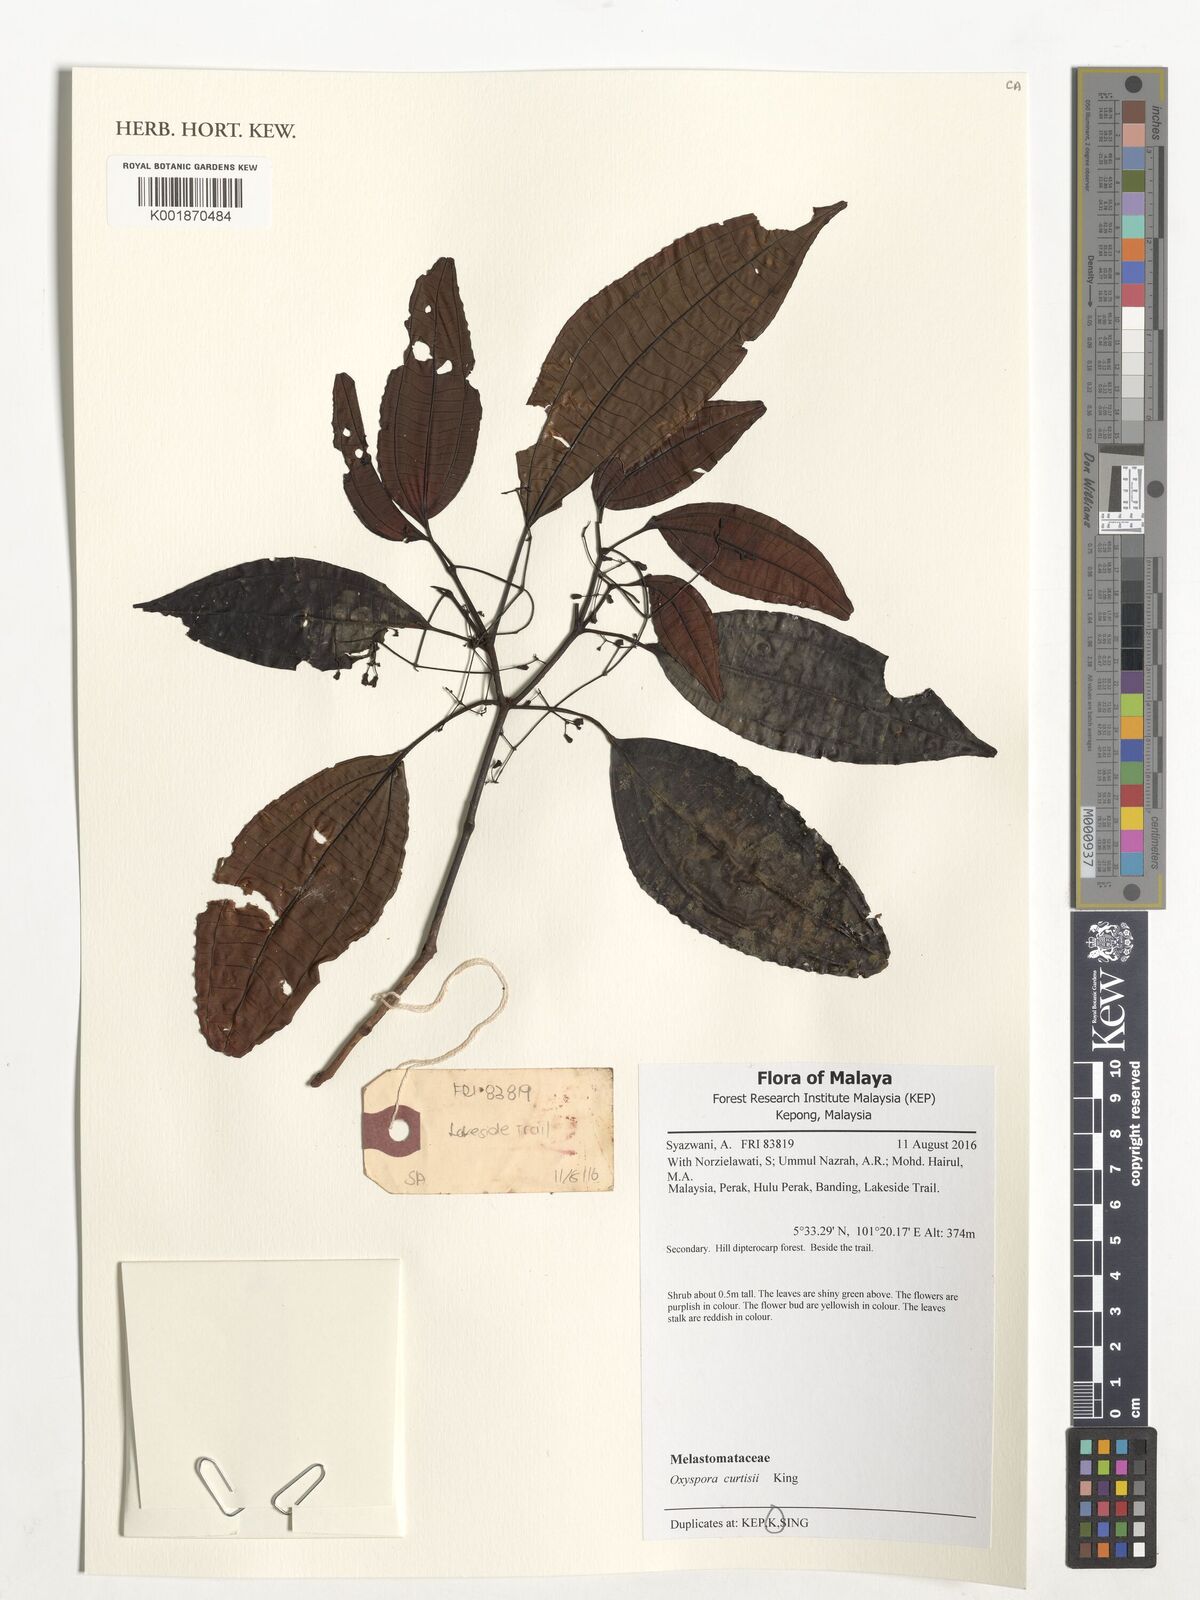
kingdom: Plantae
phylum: Tracheophyta
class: Magnoliopsida
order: Myrtales
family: Melastomataceae
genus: Allomorphia
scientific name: Allomorphia curtisii
